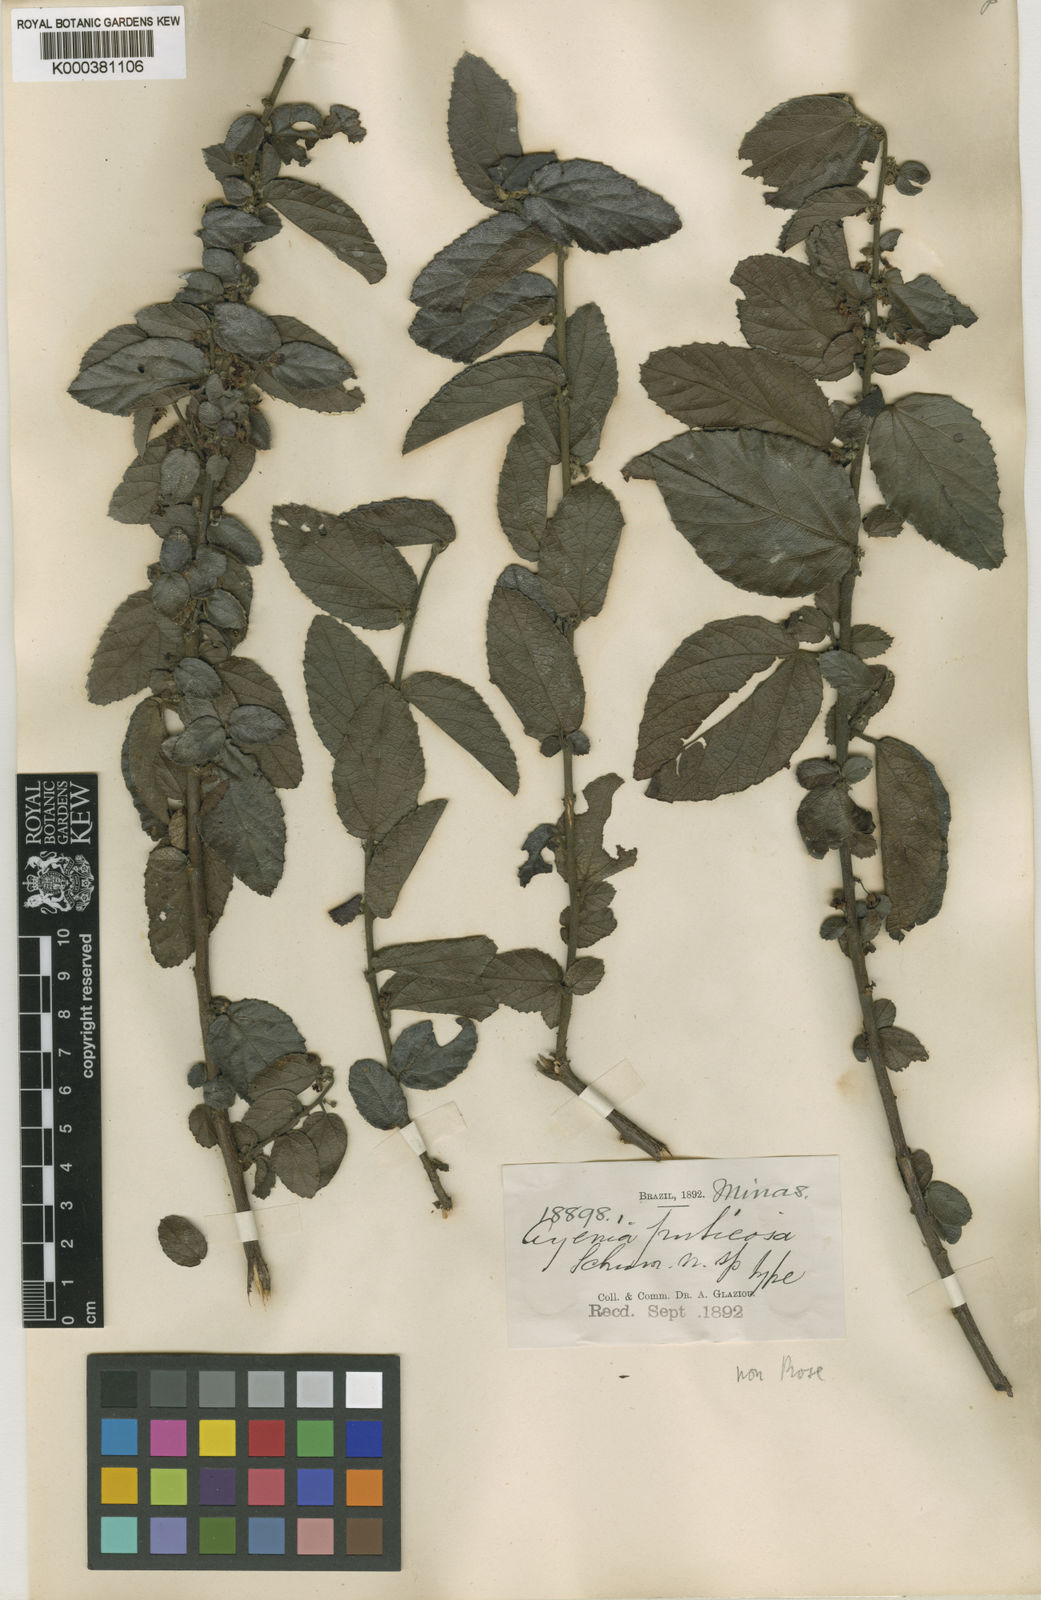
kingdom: Plantae
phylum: Tracheophyta
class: Magnoliopsida
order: Malvales
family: Malvaceae
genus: Ayenia
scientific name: Ayenia
